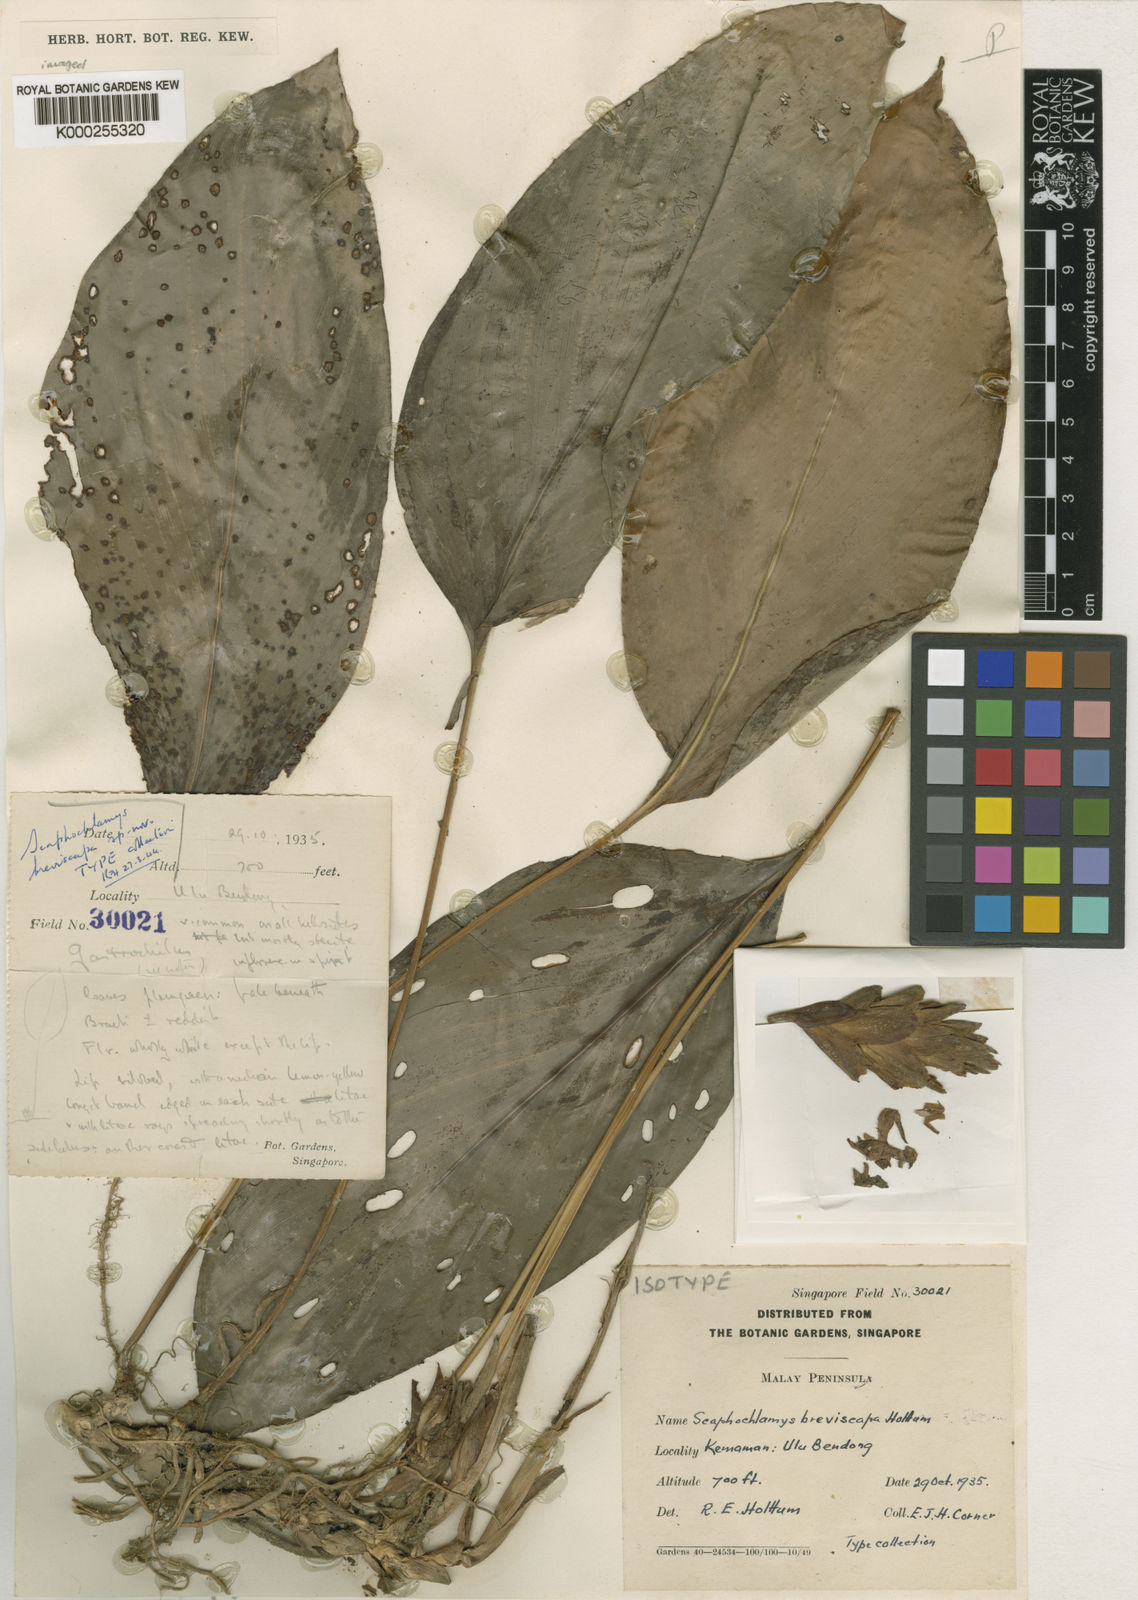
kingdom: Plantae
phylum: Tracheophyta
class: Liliopsida
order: Zingiberales
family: Zingiberaceae
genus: Scaphochlamys
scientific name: Scaphochlamys breviscapa
